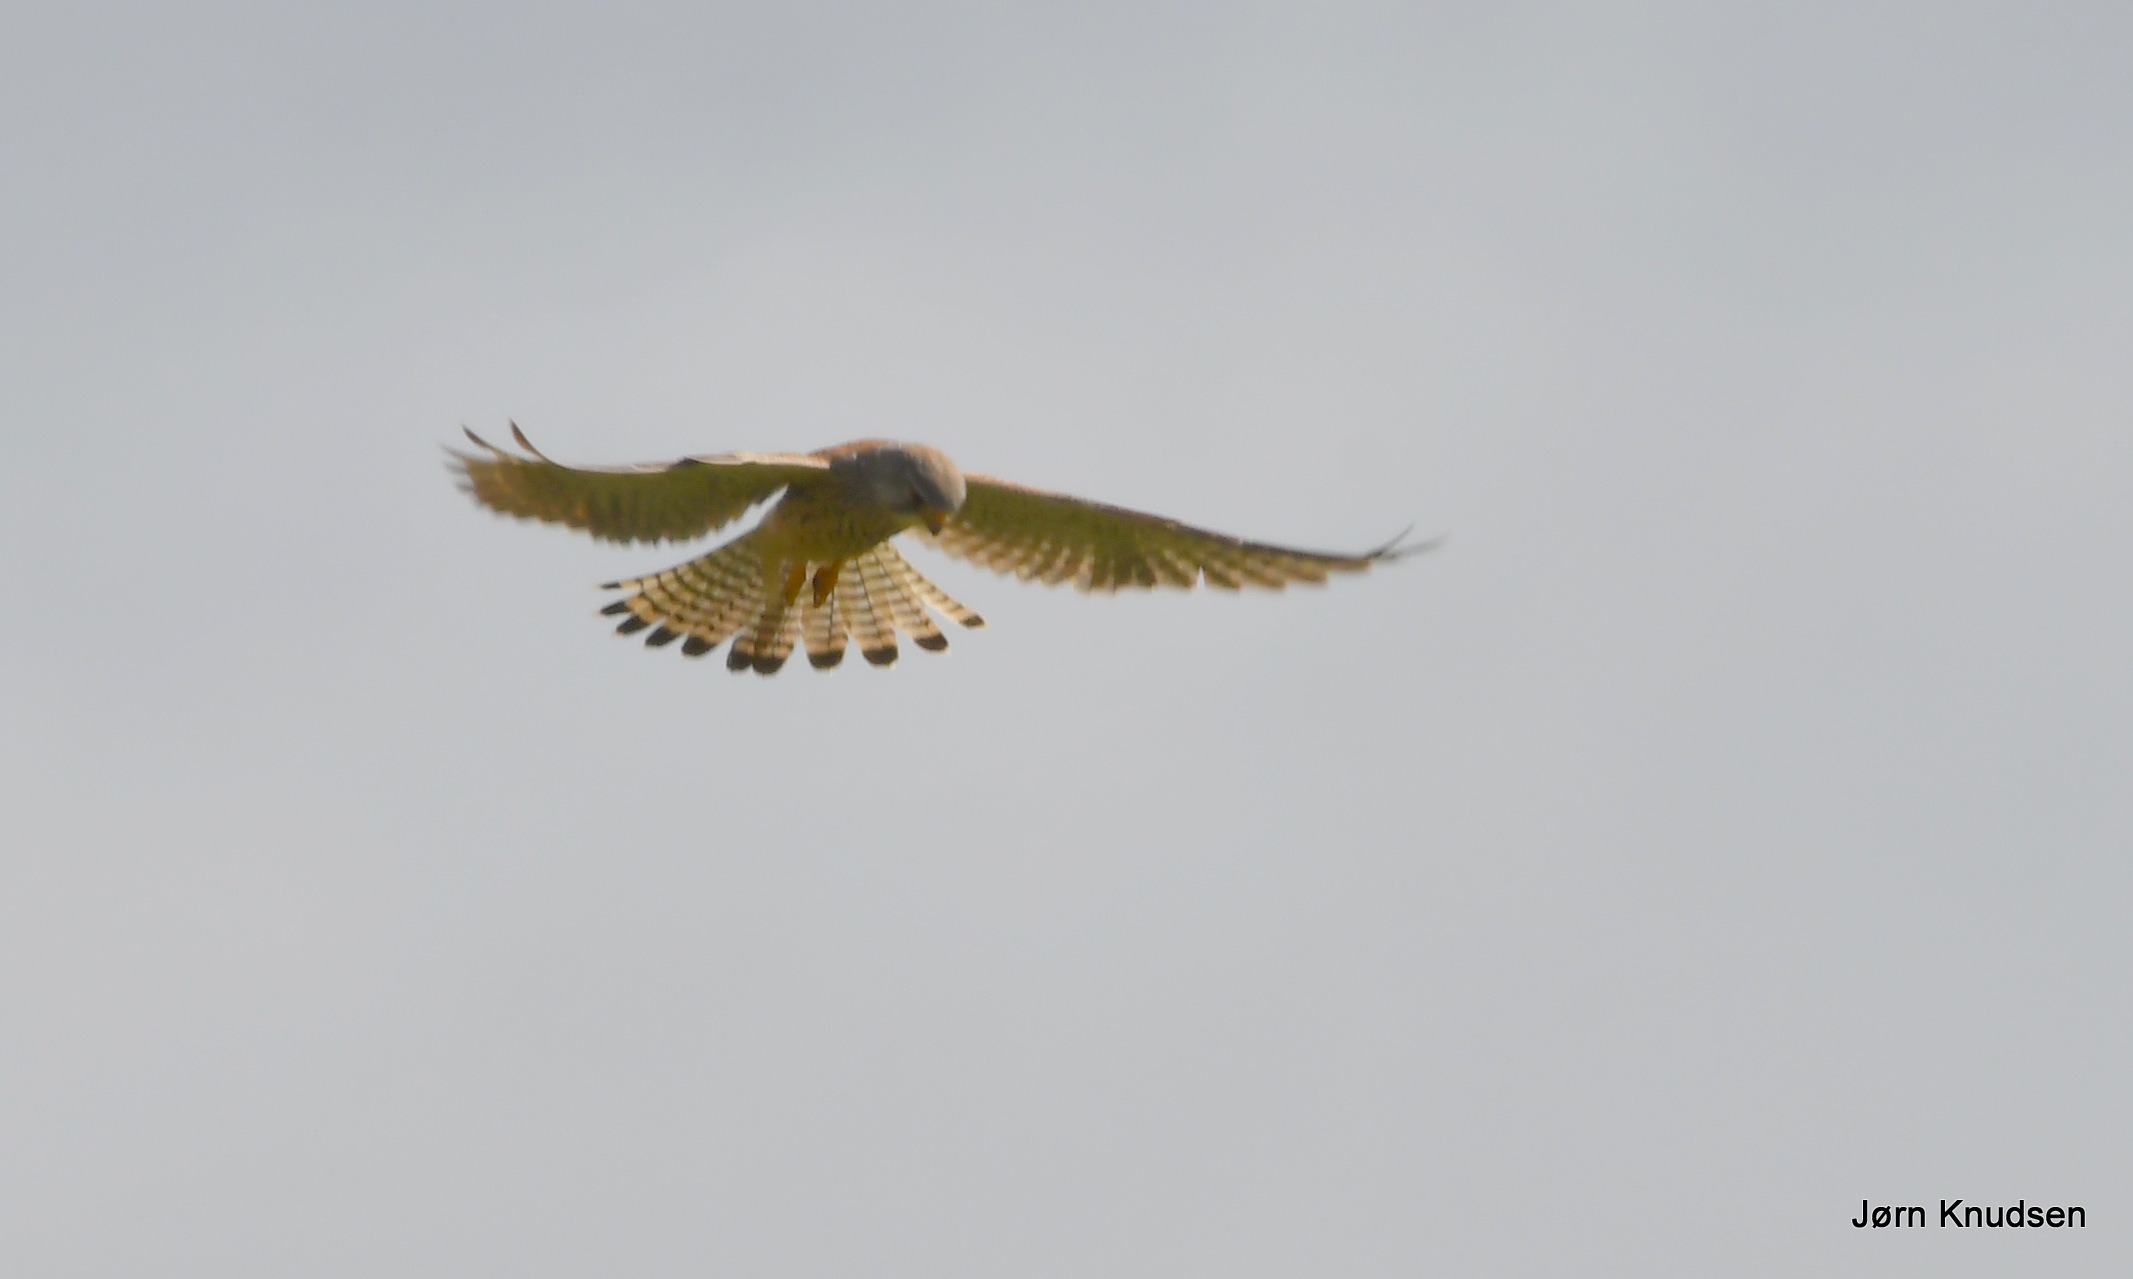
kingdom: Animalia
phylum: Chordata
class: Aves
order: Falconiformes
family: Falconidae
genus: Falco
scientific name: Falco tinnunculus
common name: Tårnfalk
